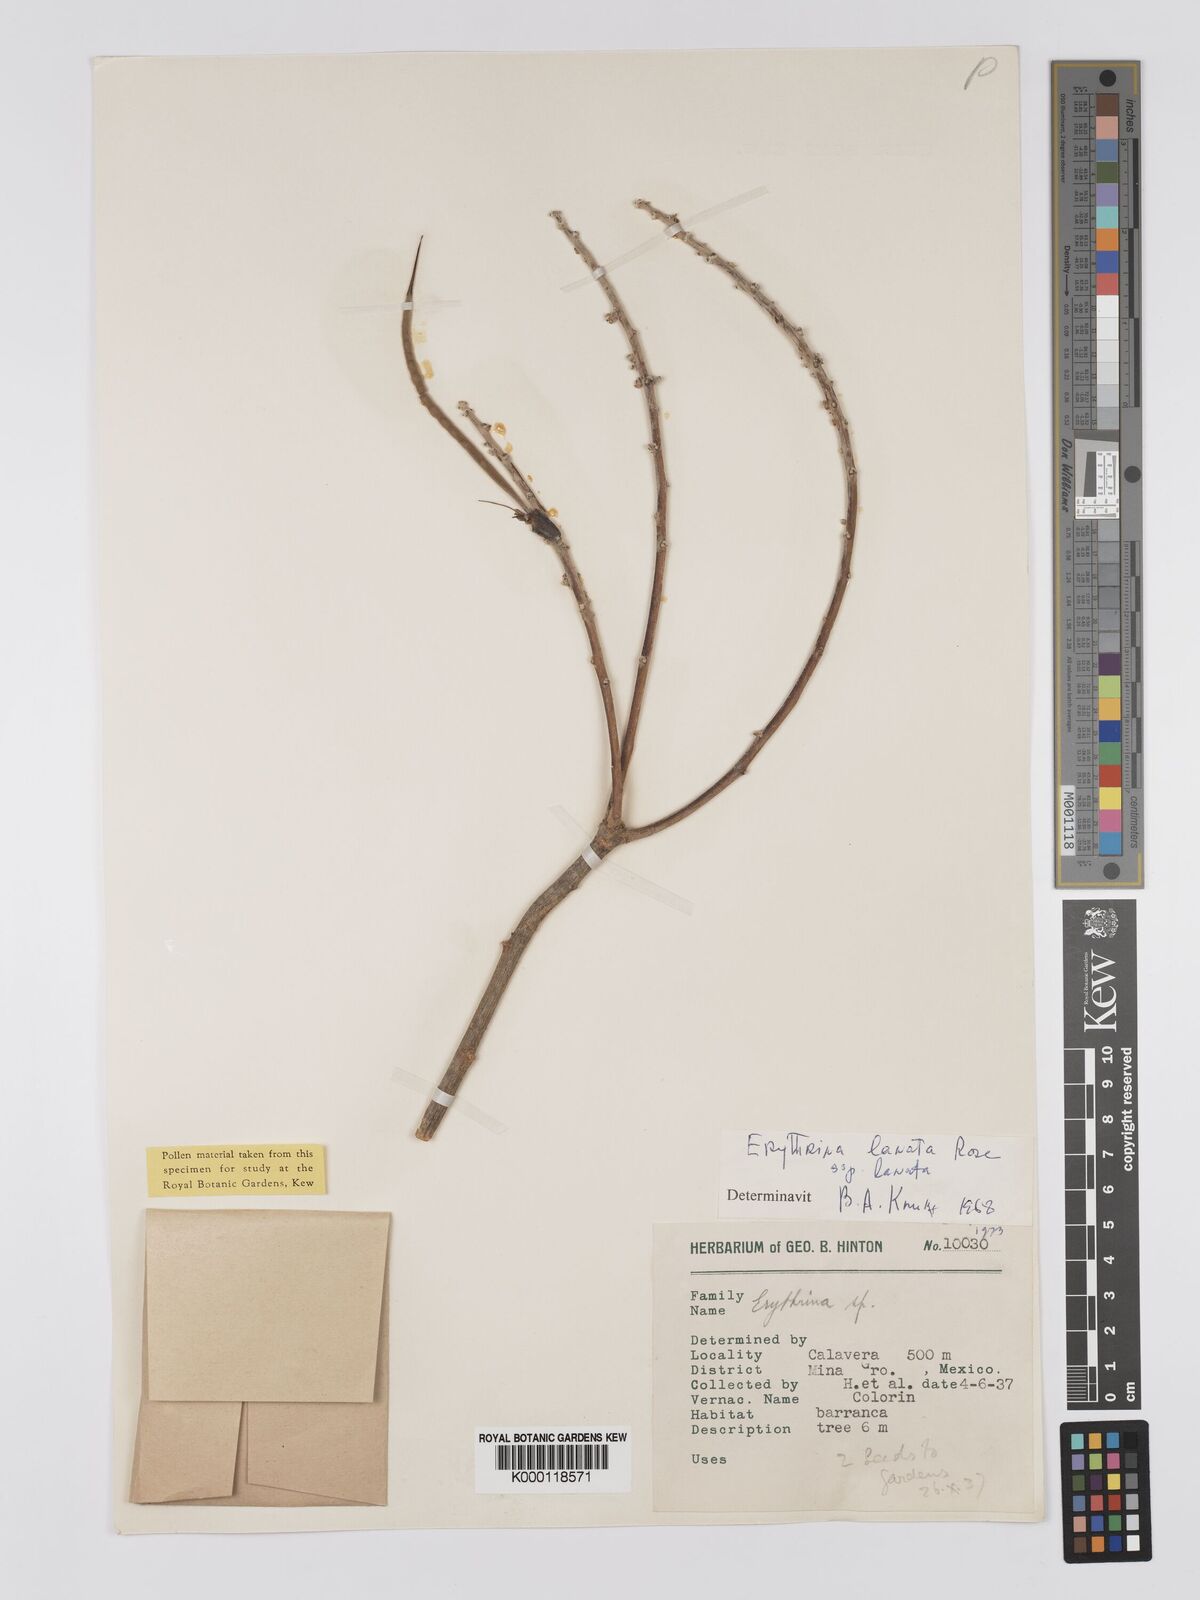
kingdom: Plantae
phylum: Tracheophyta
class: Magnoliopsida
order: Fabales
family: Fabaceae
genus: Erythrina
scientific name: Erythrina lanata
